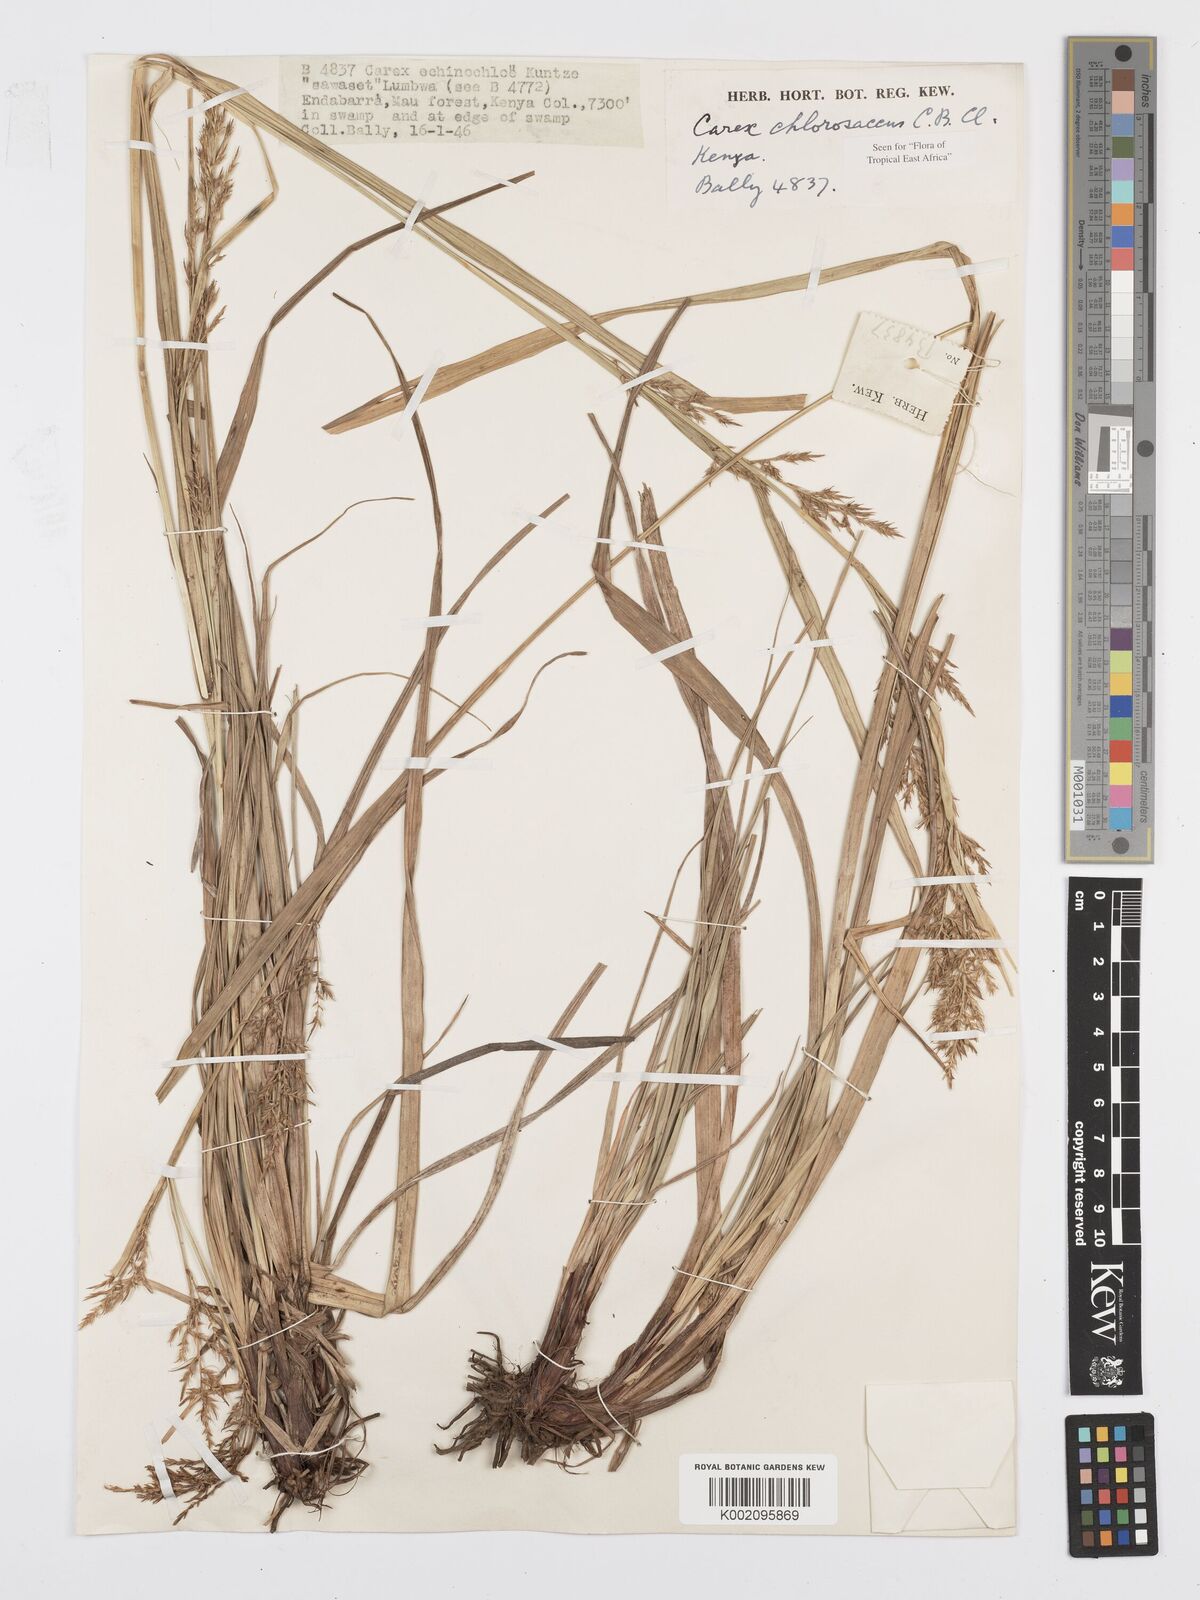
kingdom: Plantae
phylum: Tracheophyta
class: Liliopsida
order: Poales
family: Cyperaceae
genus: Carex
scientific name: Carex chlorosaccus
